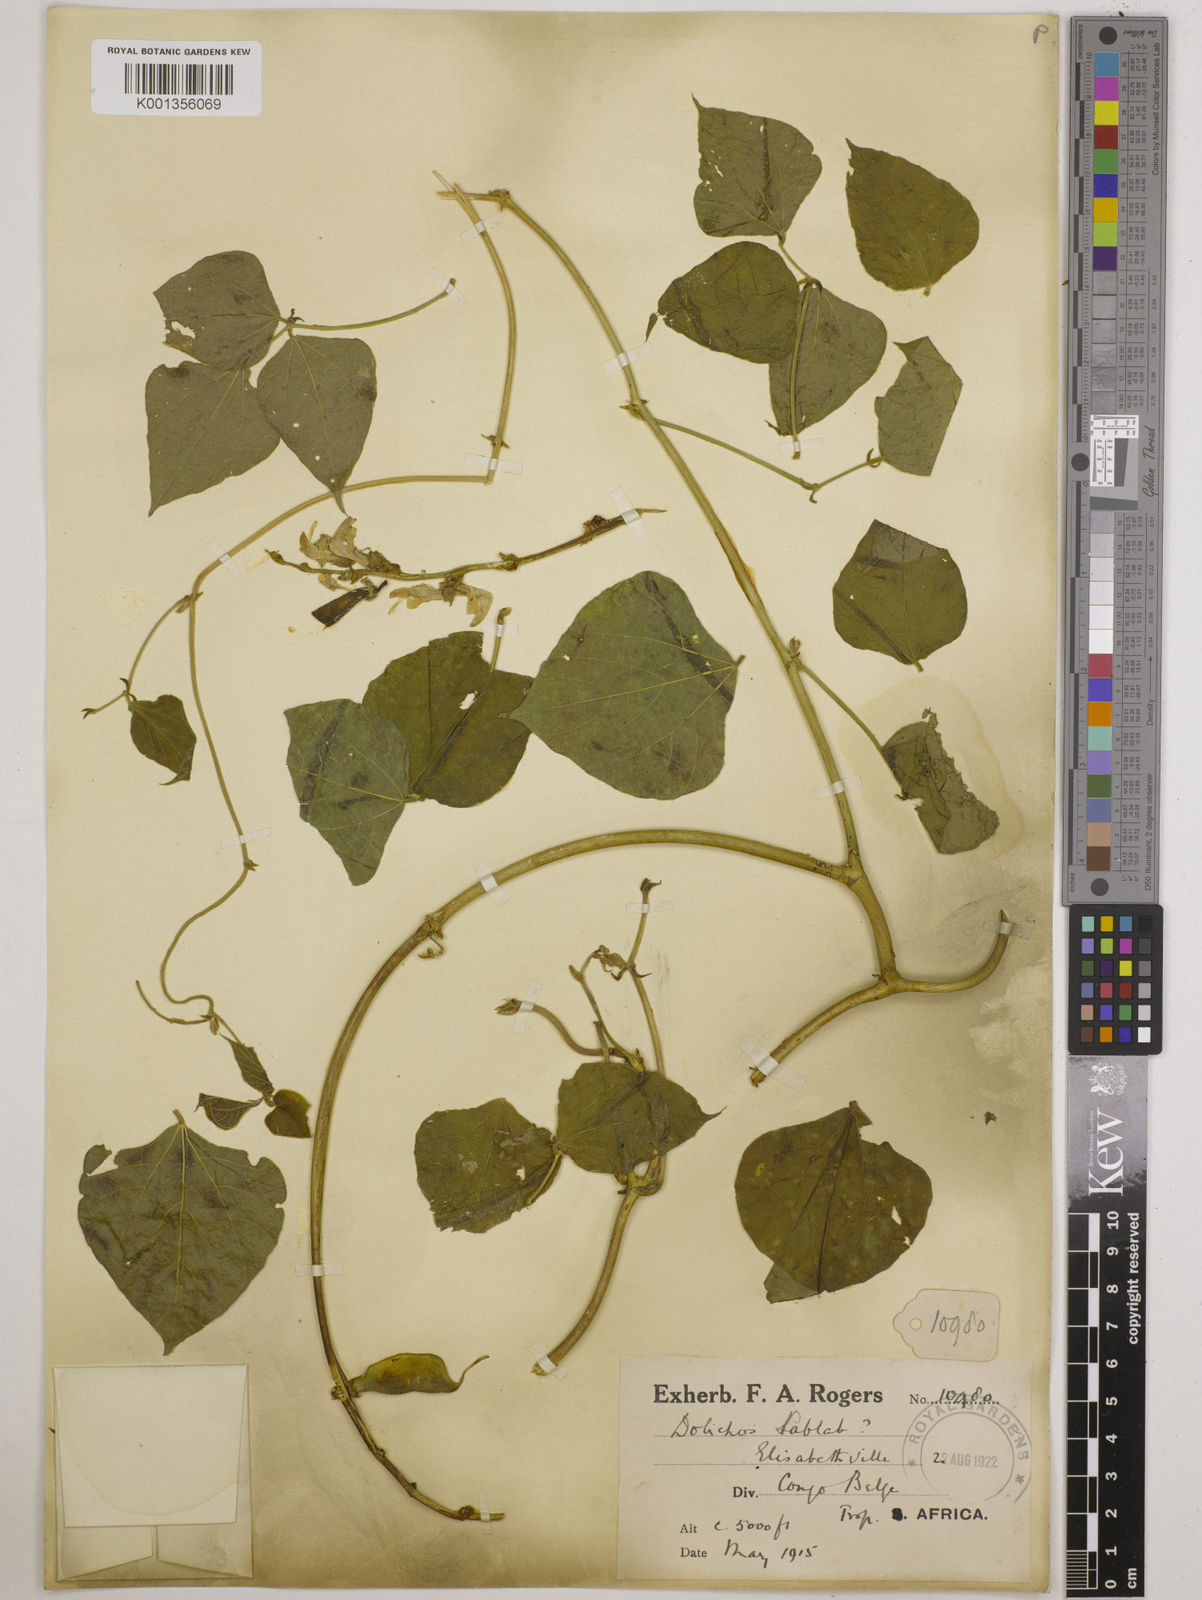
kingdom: Plantae
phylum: Tracheophyta
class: Magnoliopsida
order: Fabales
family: Fabaceae
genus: Lablab
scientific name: Lablab purpureus
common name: Lablab-bean
